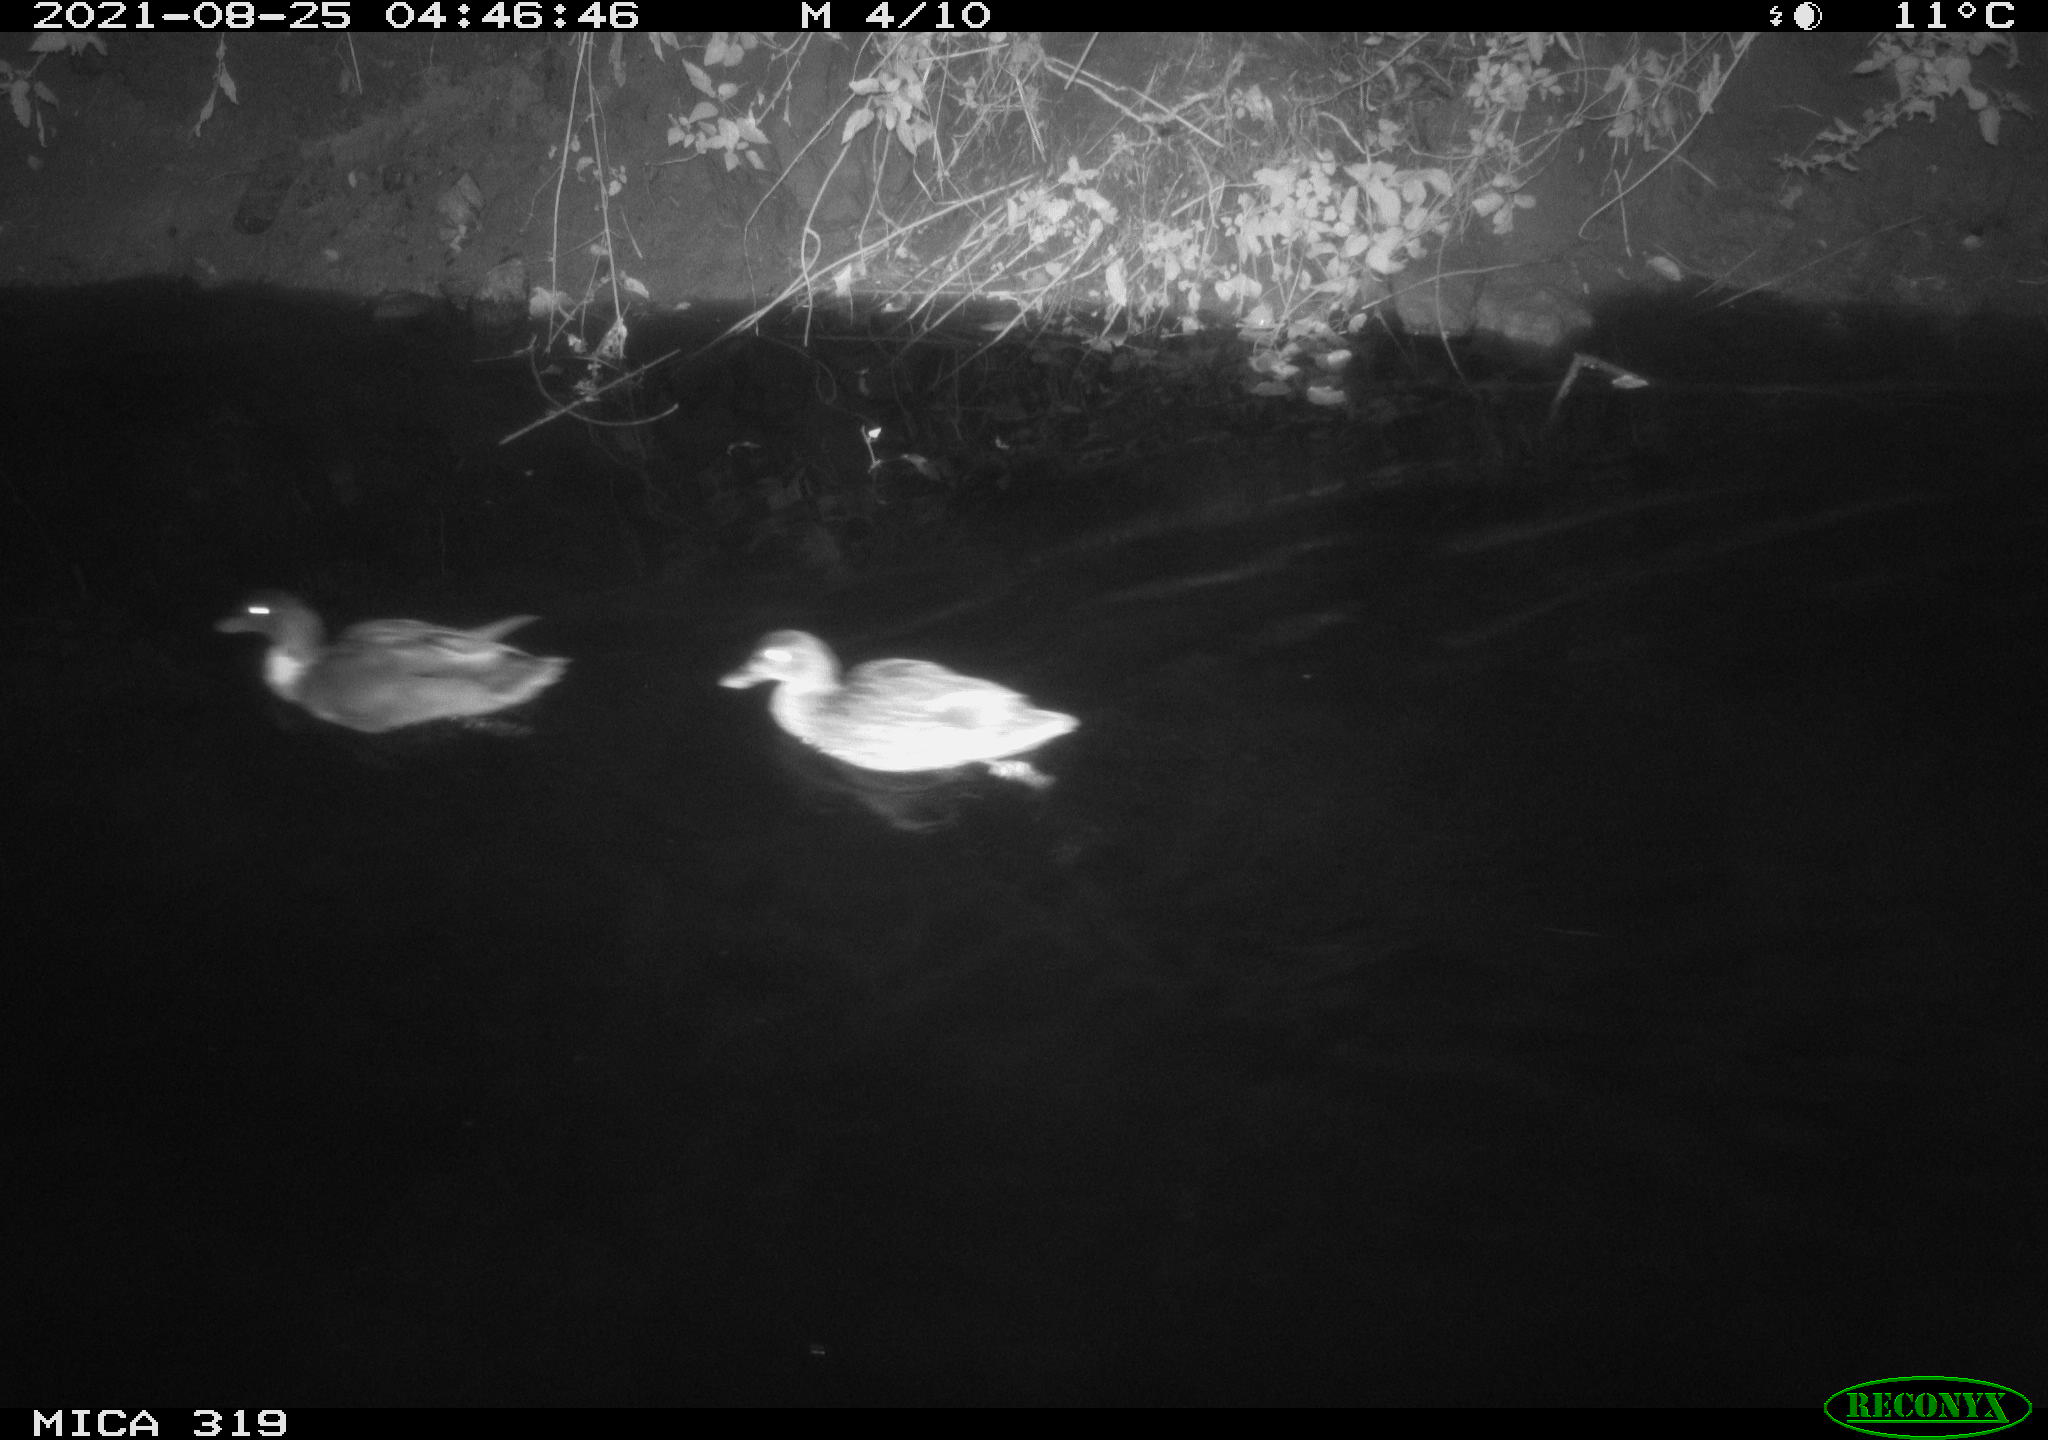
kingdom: Animalia
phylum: Chordata
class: Aves
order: Anseriformes
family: Anatidae
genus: Anas
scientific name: Anas platyrhynchos
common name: Mallard
